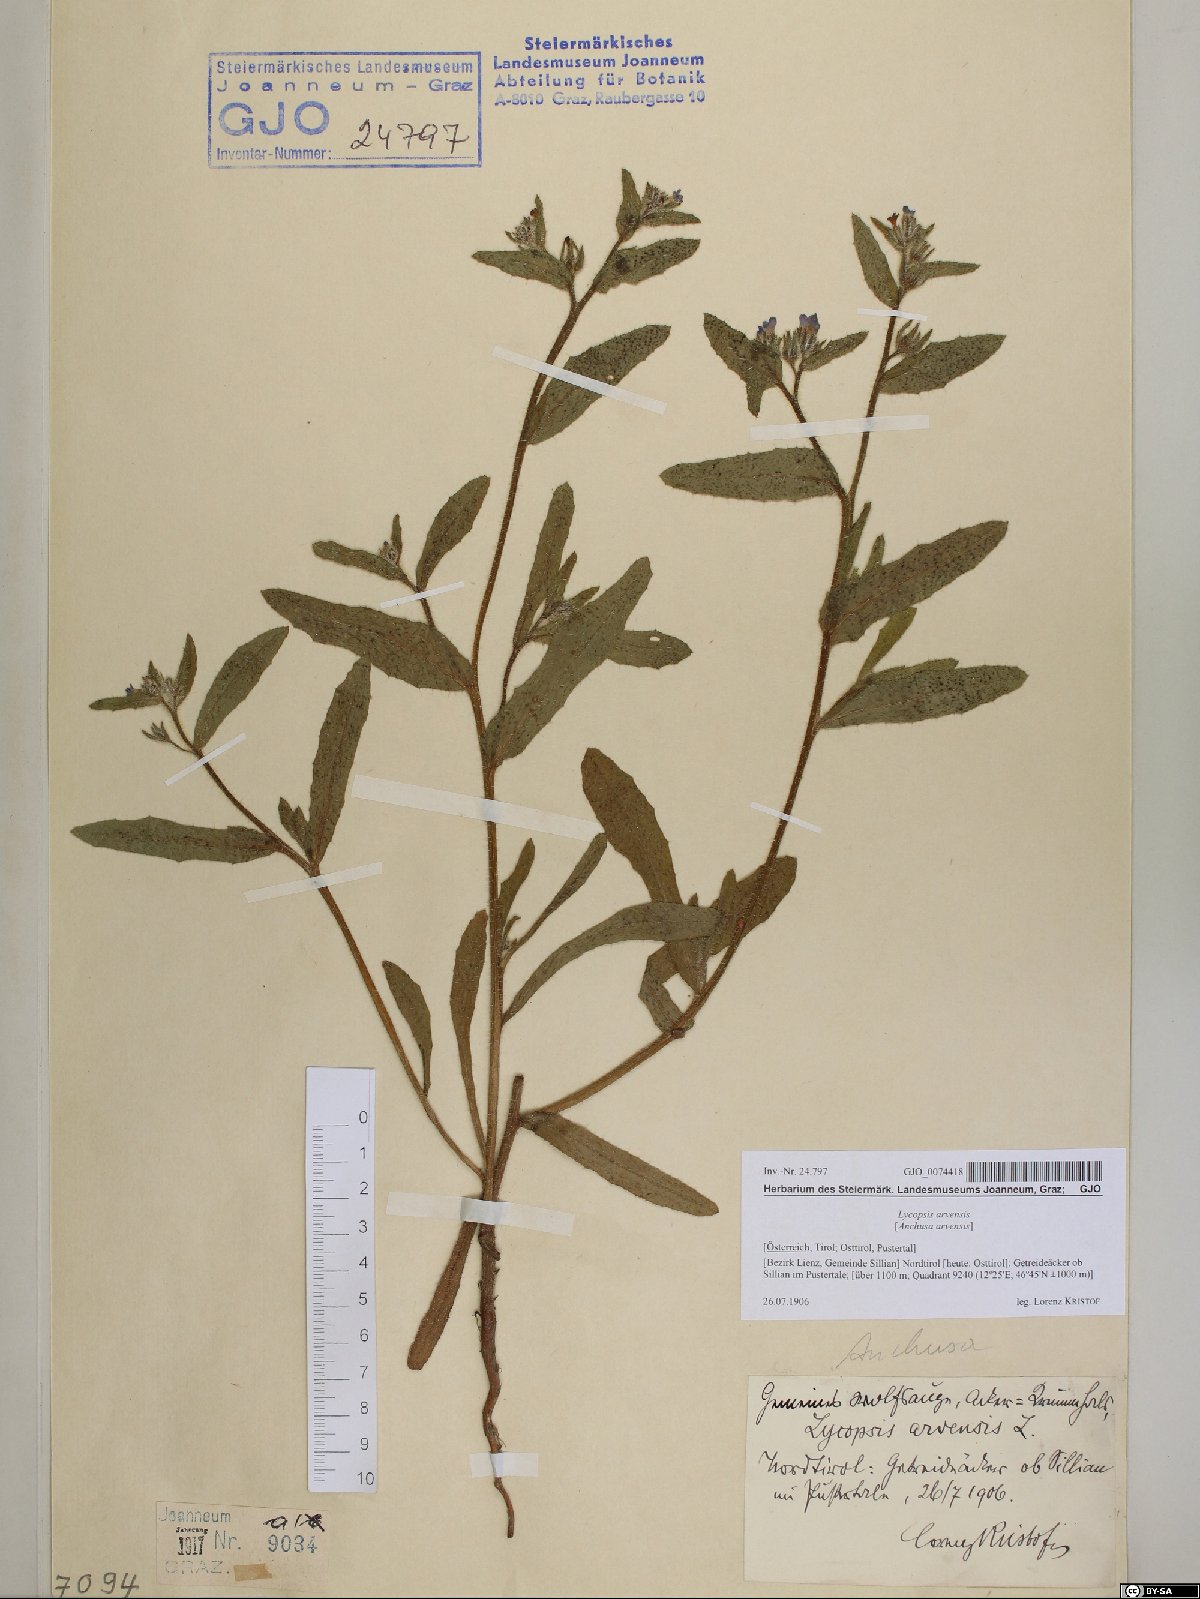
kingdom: Plantae
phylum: Tracheophyta
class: Magnoliopsida
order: Boraginales
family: Boraginaceae
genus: Lycopsis
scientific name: Lycopsis arvensis
